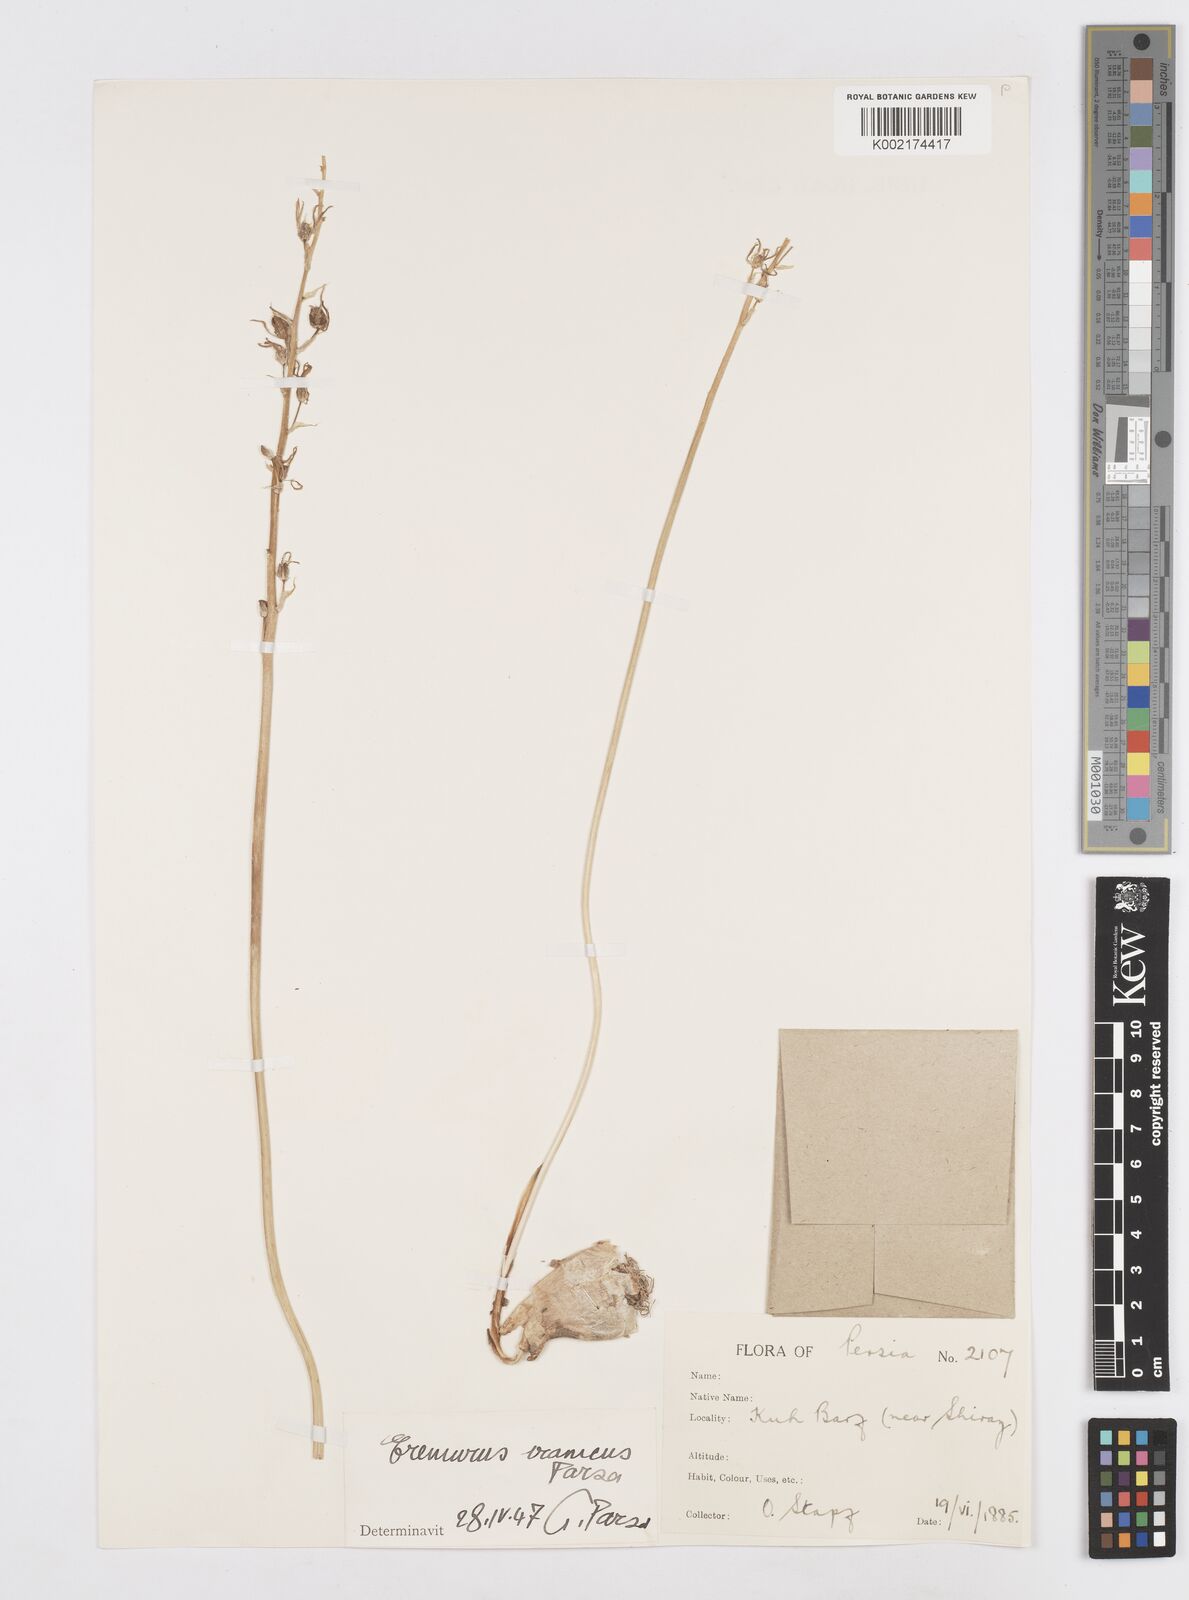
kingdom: Plantae
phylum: Tracheophyta
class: Liliopsida
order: Asparagales
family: Asparagaceae
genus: Ornithogalum
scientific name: Ornithogalum narbonense
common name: Bath-asparagus
